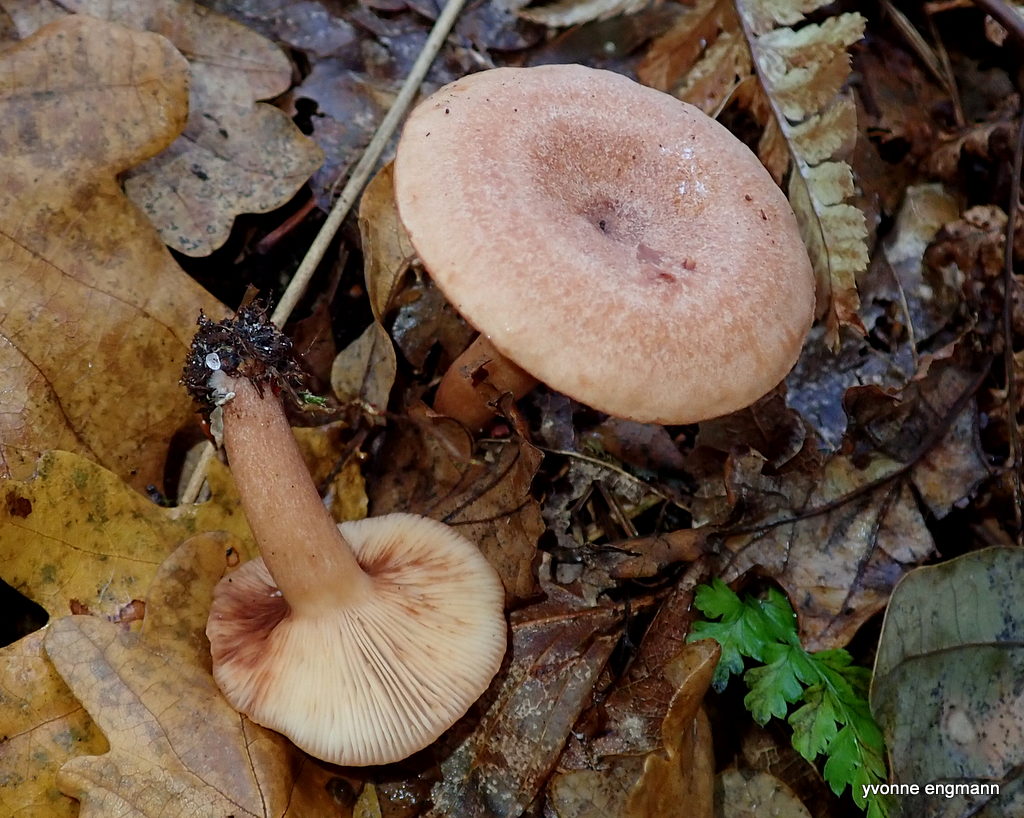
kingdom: Fungi
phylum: Basidiomycota
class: Agaricomycetes
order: Russulales
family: Russulaceae
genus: Lactarius
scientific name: Lactarius quietus
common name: ege-mælkehat
